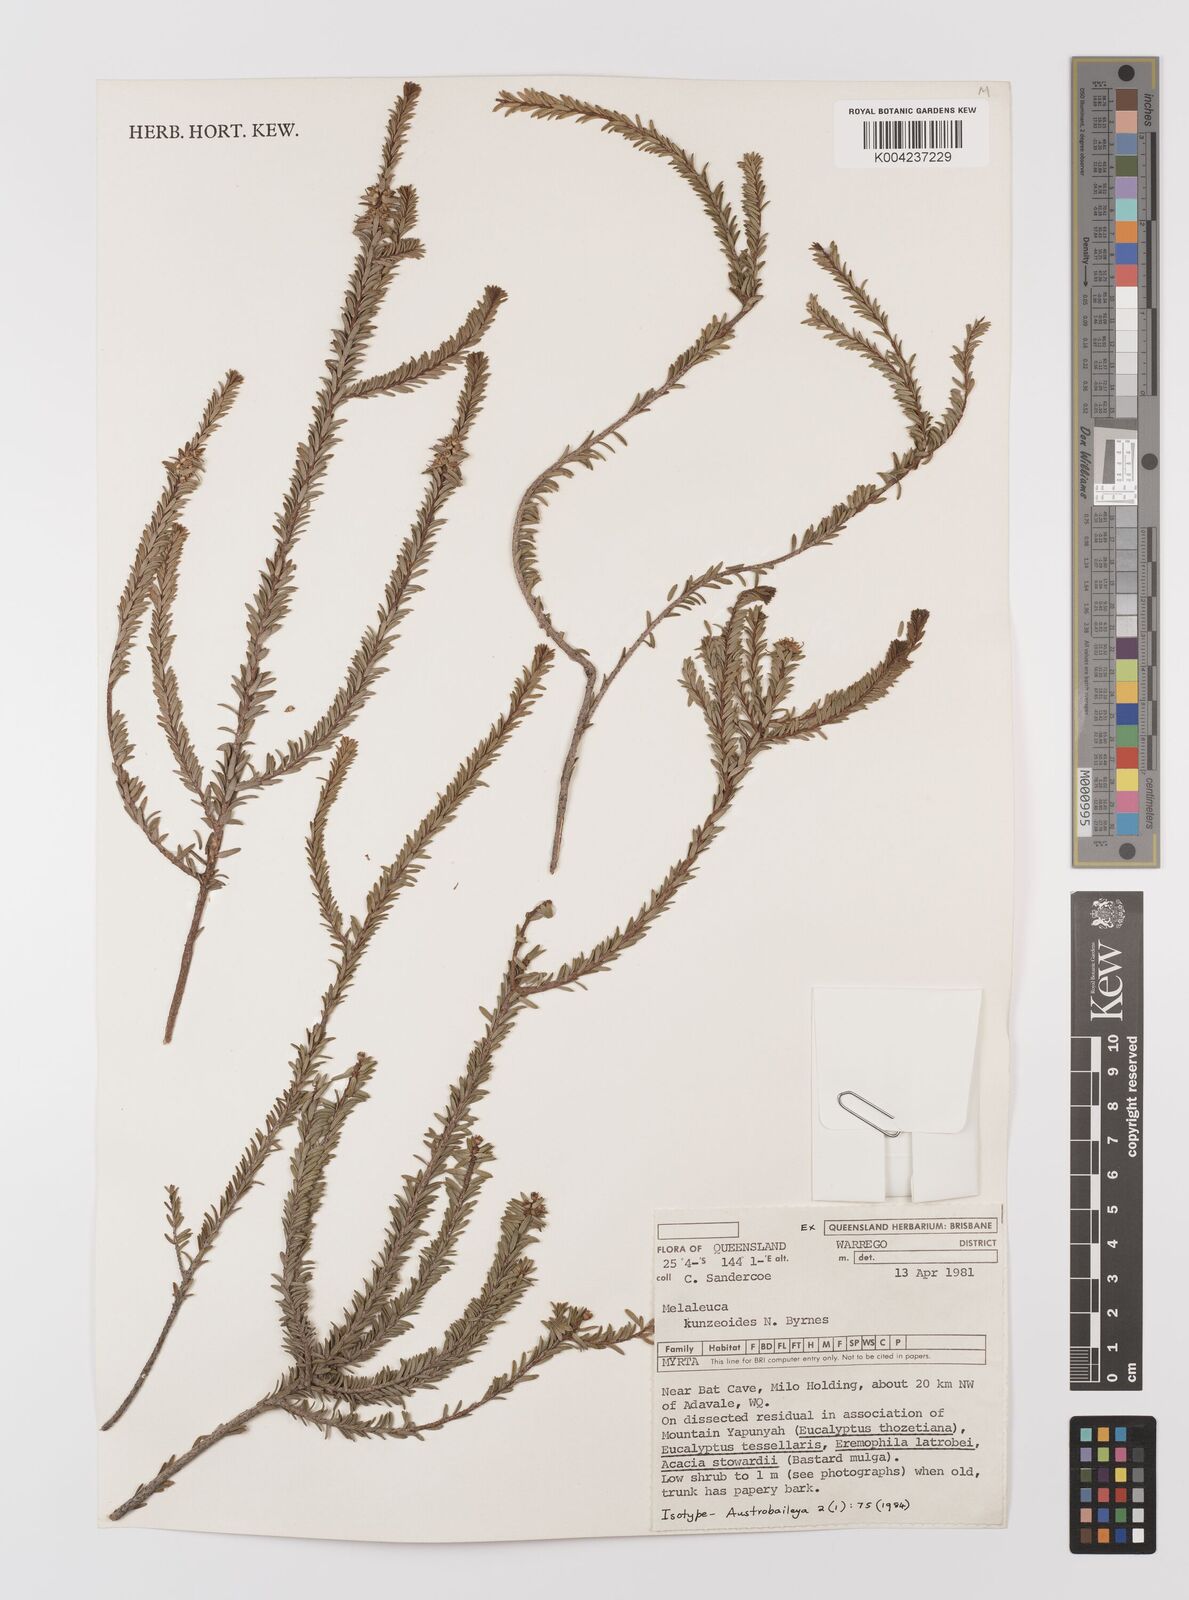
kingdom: Plantae
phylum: Tracheophyta
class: Magnoliopsida
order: Myrtales
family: Myrtaceae
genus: Melaleuca
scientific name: Melaleuca kunzeoides
